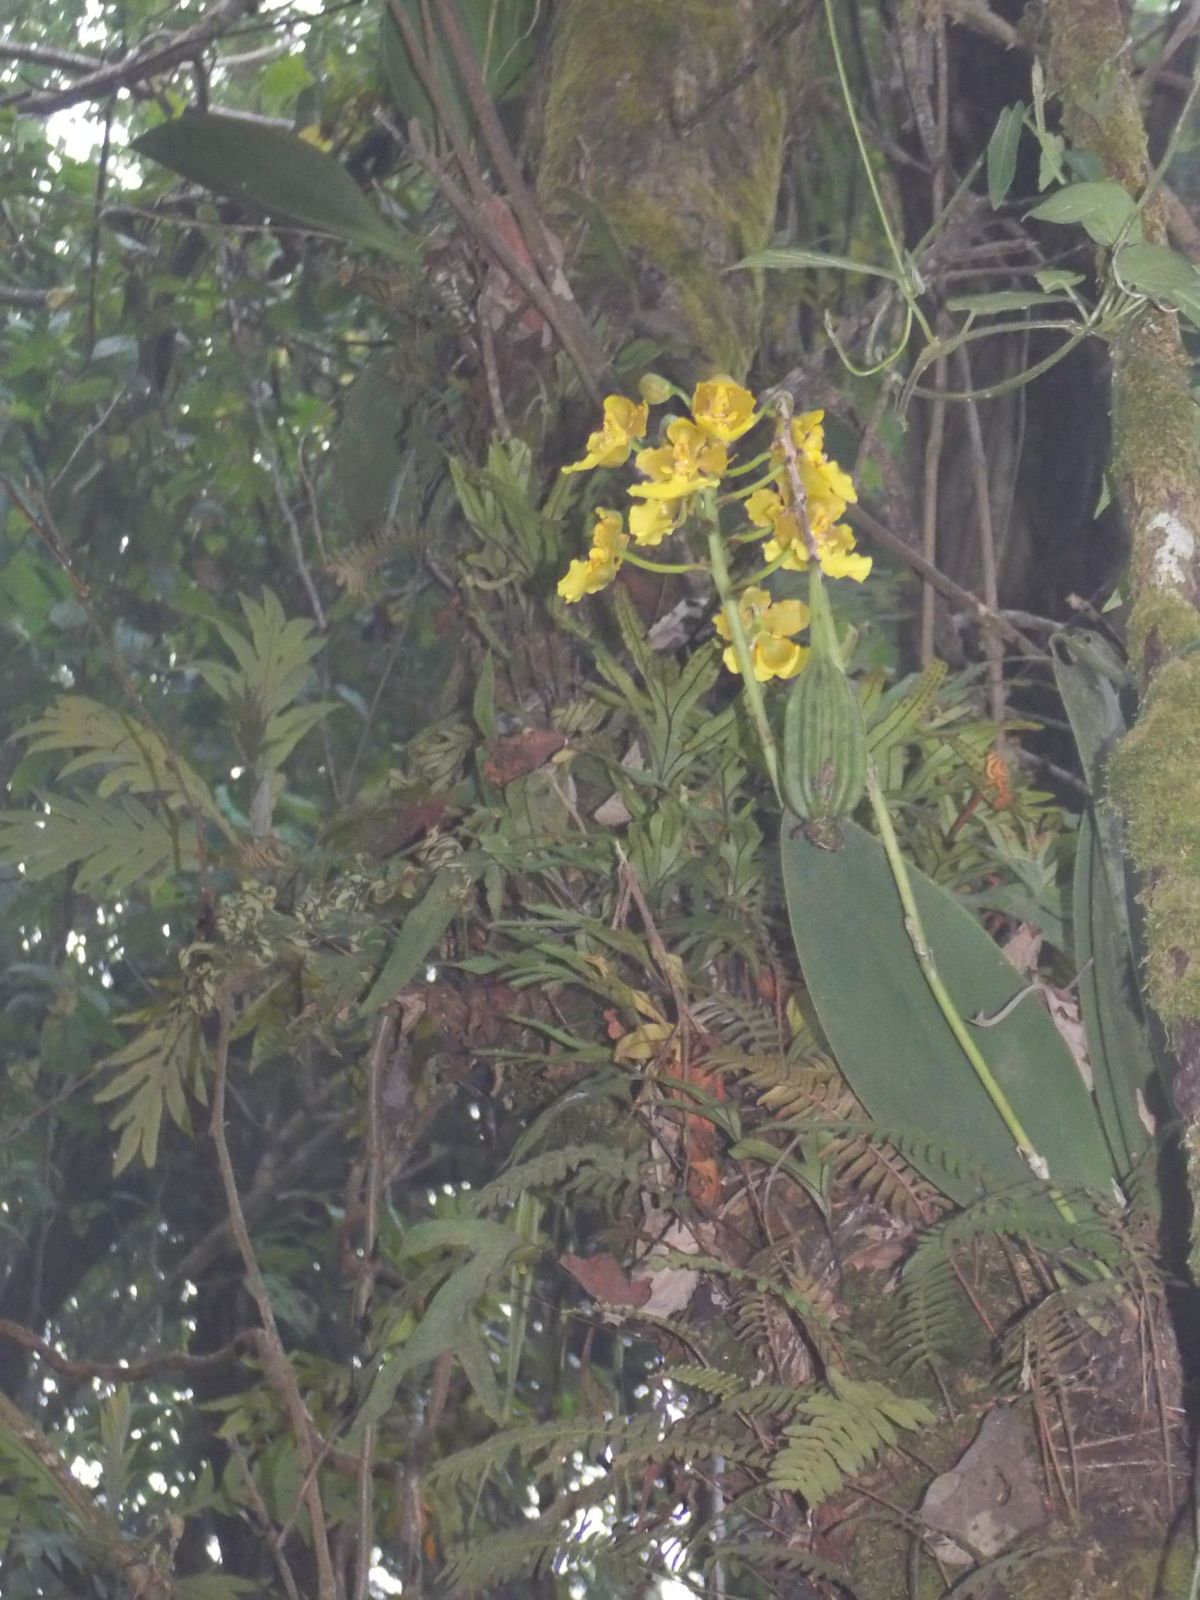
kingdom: Plantae
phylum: Tracheophyta
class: Liliopsida
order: Asparagales
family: Orchidaceae
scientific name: Orchidaceae
